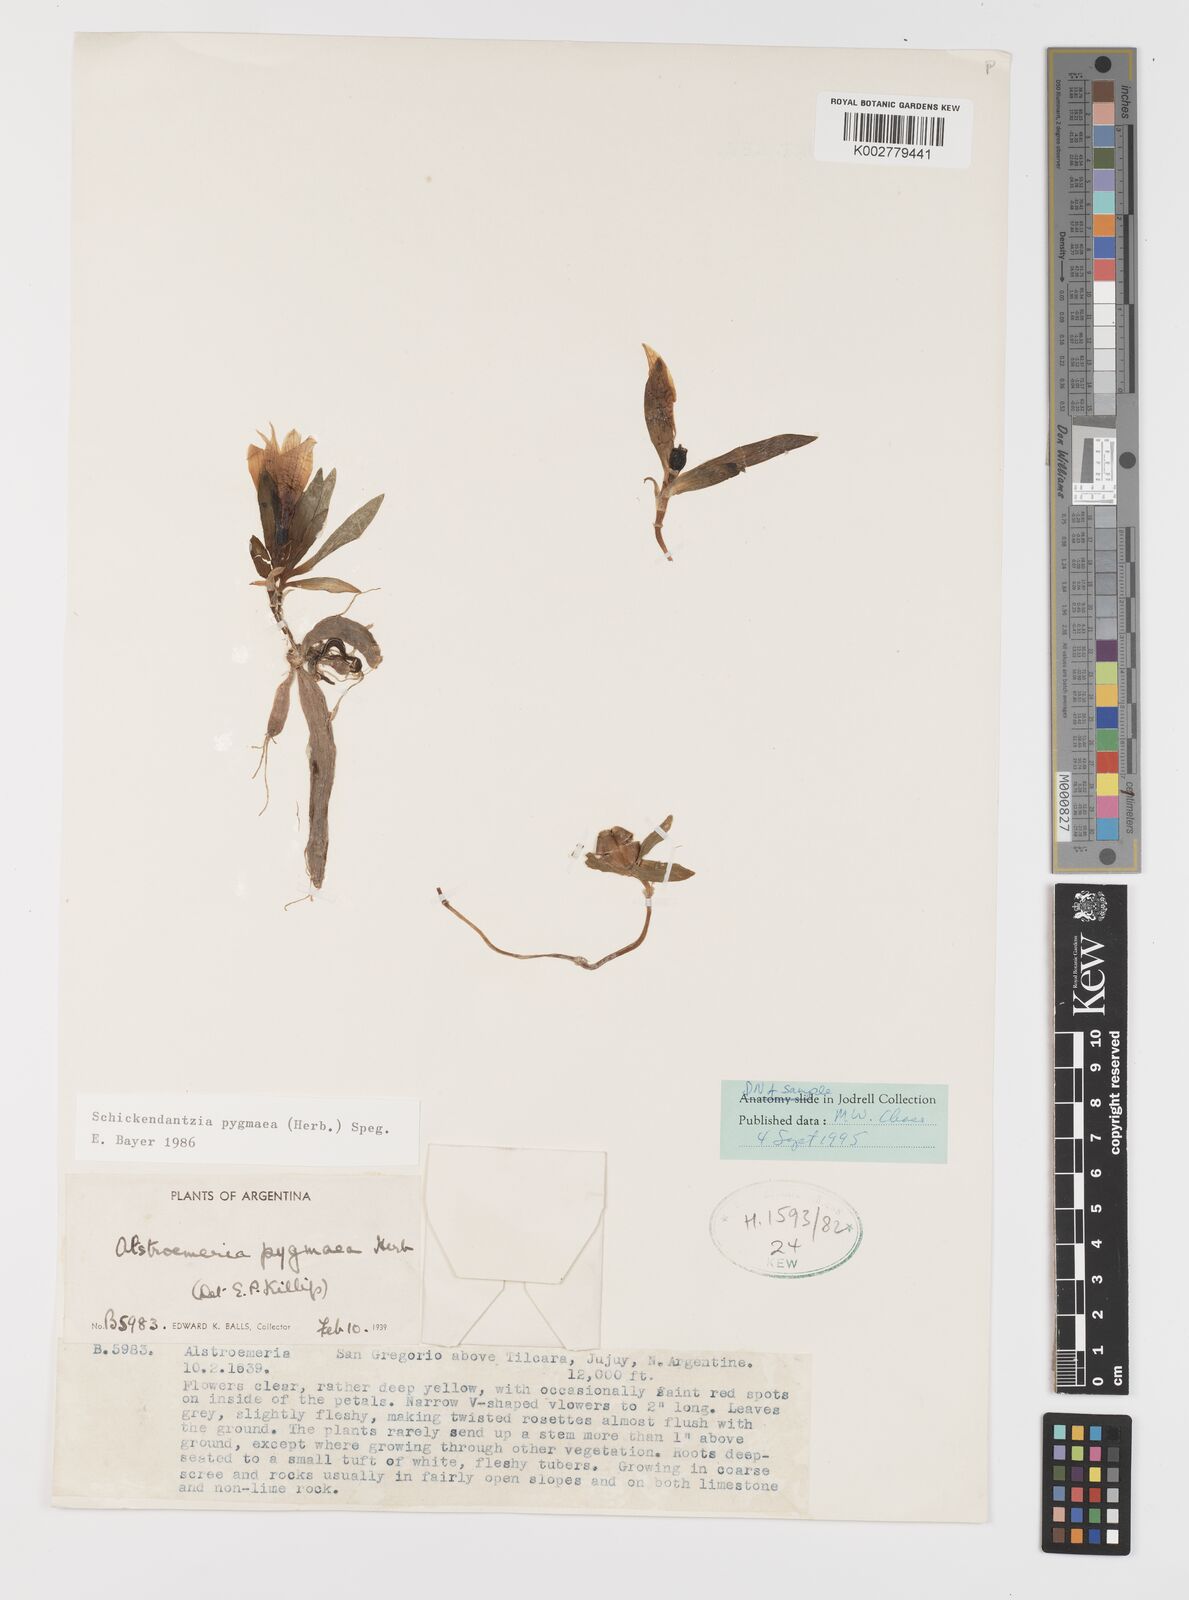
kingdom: Plantae
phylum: Tracheophyta
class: Liliopsida
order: Liliales
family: Alstroemeriaceae
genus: Alstroemeria
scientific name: Alstroemeria pygmaea
